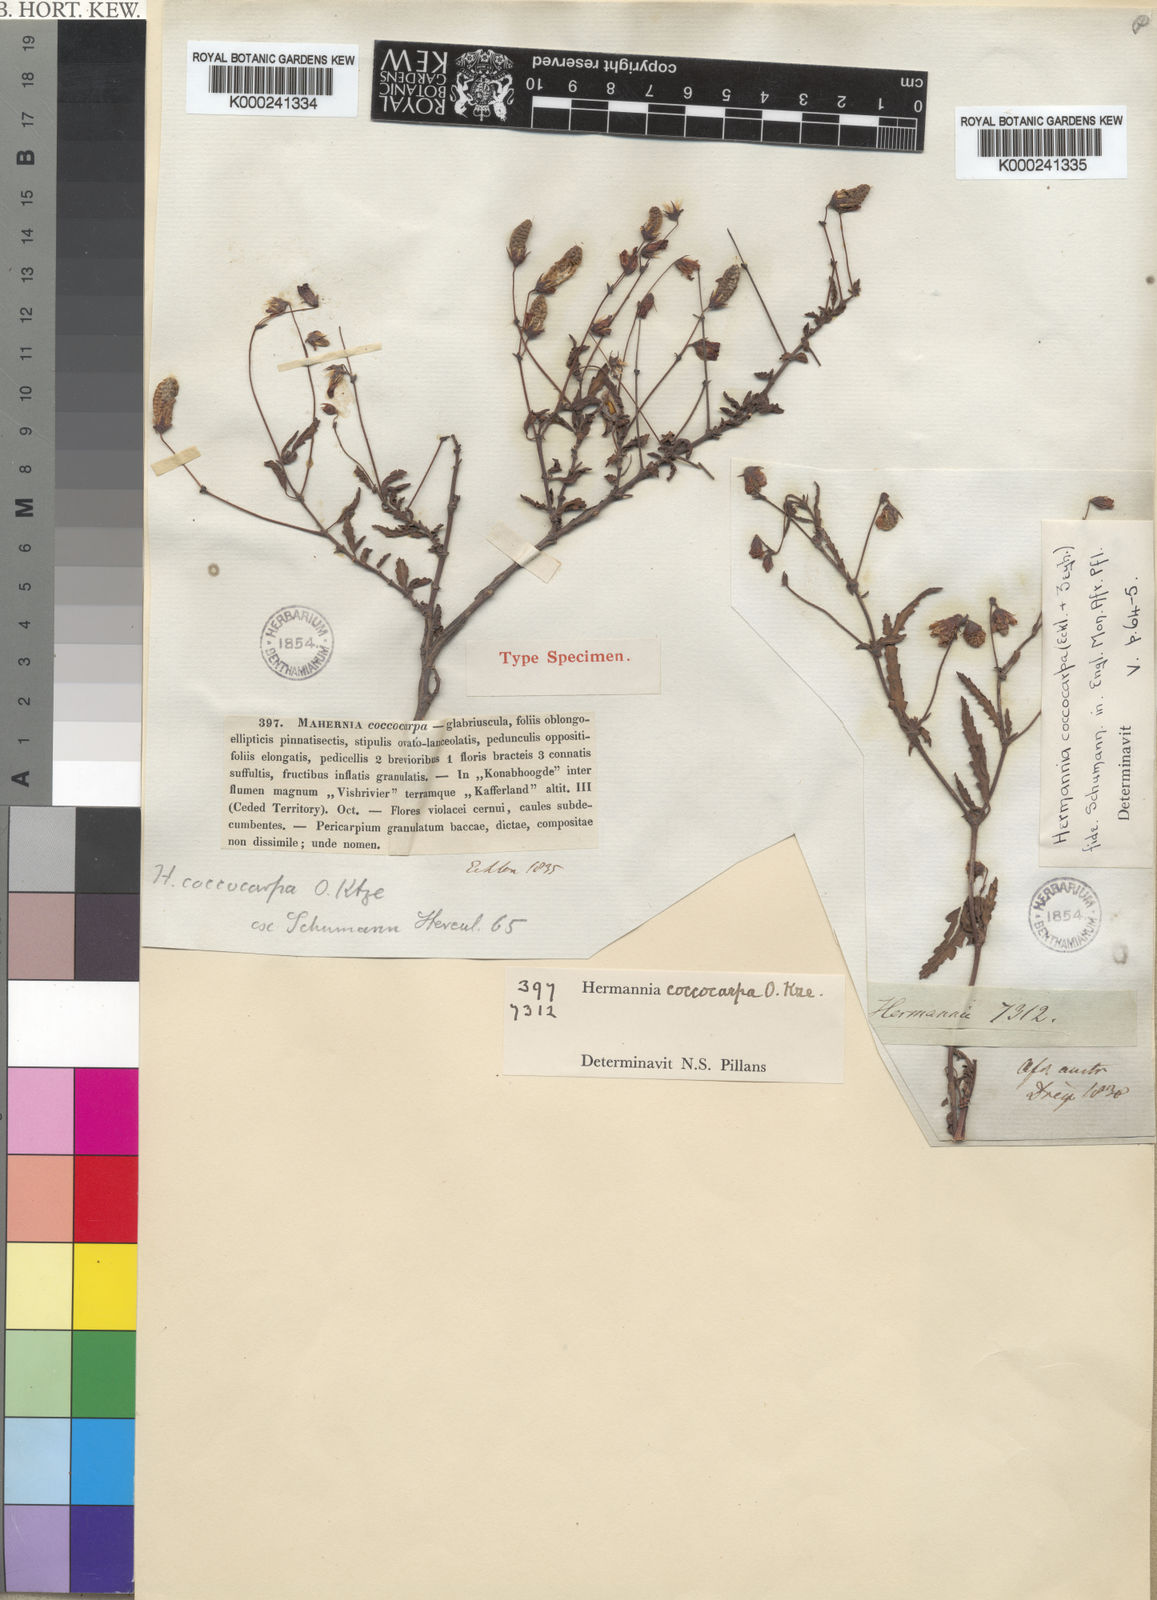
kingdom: Plantae
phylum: Tracheophyta
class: Magnoliopsida
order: Malvales
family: Malvaceae
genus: Hermannia
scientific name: Hermannia coccocarpa
